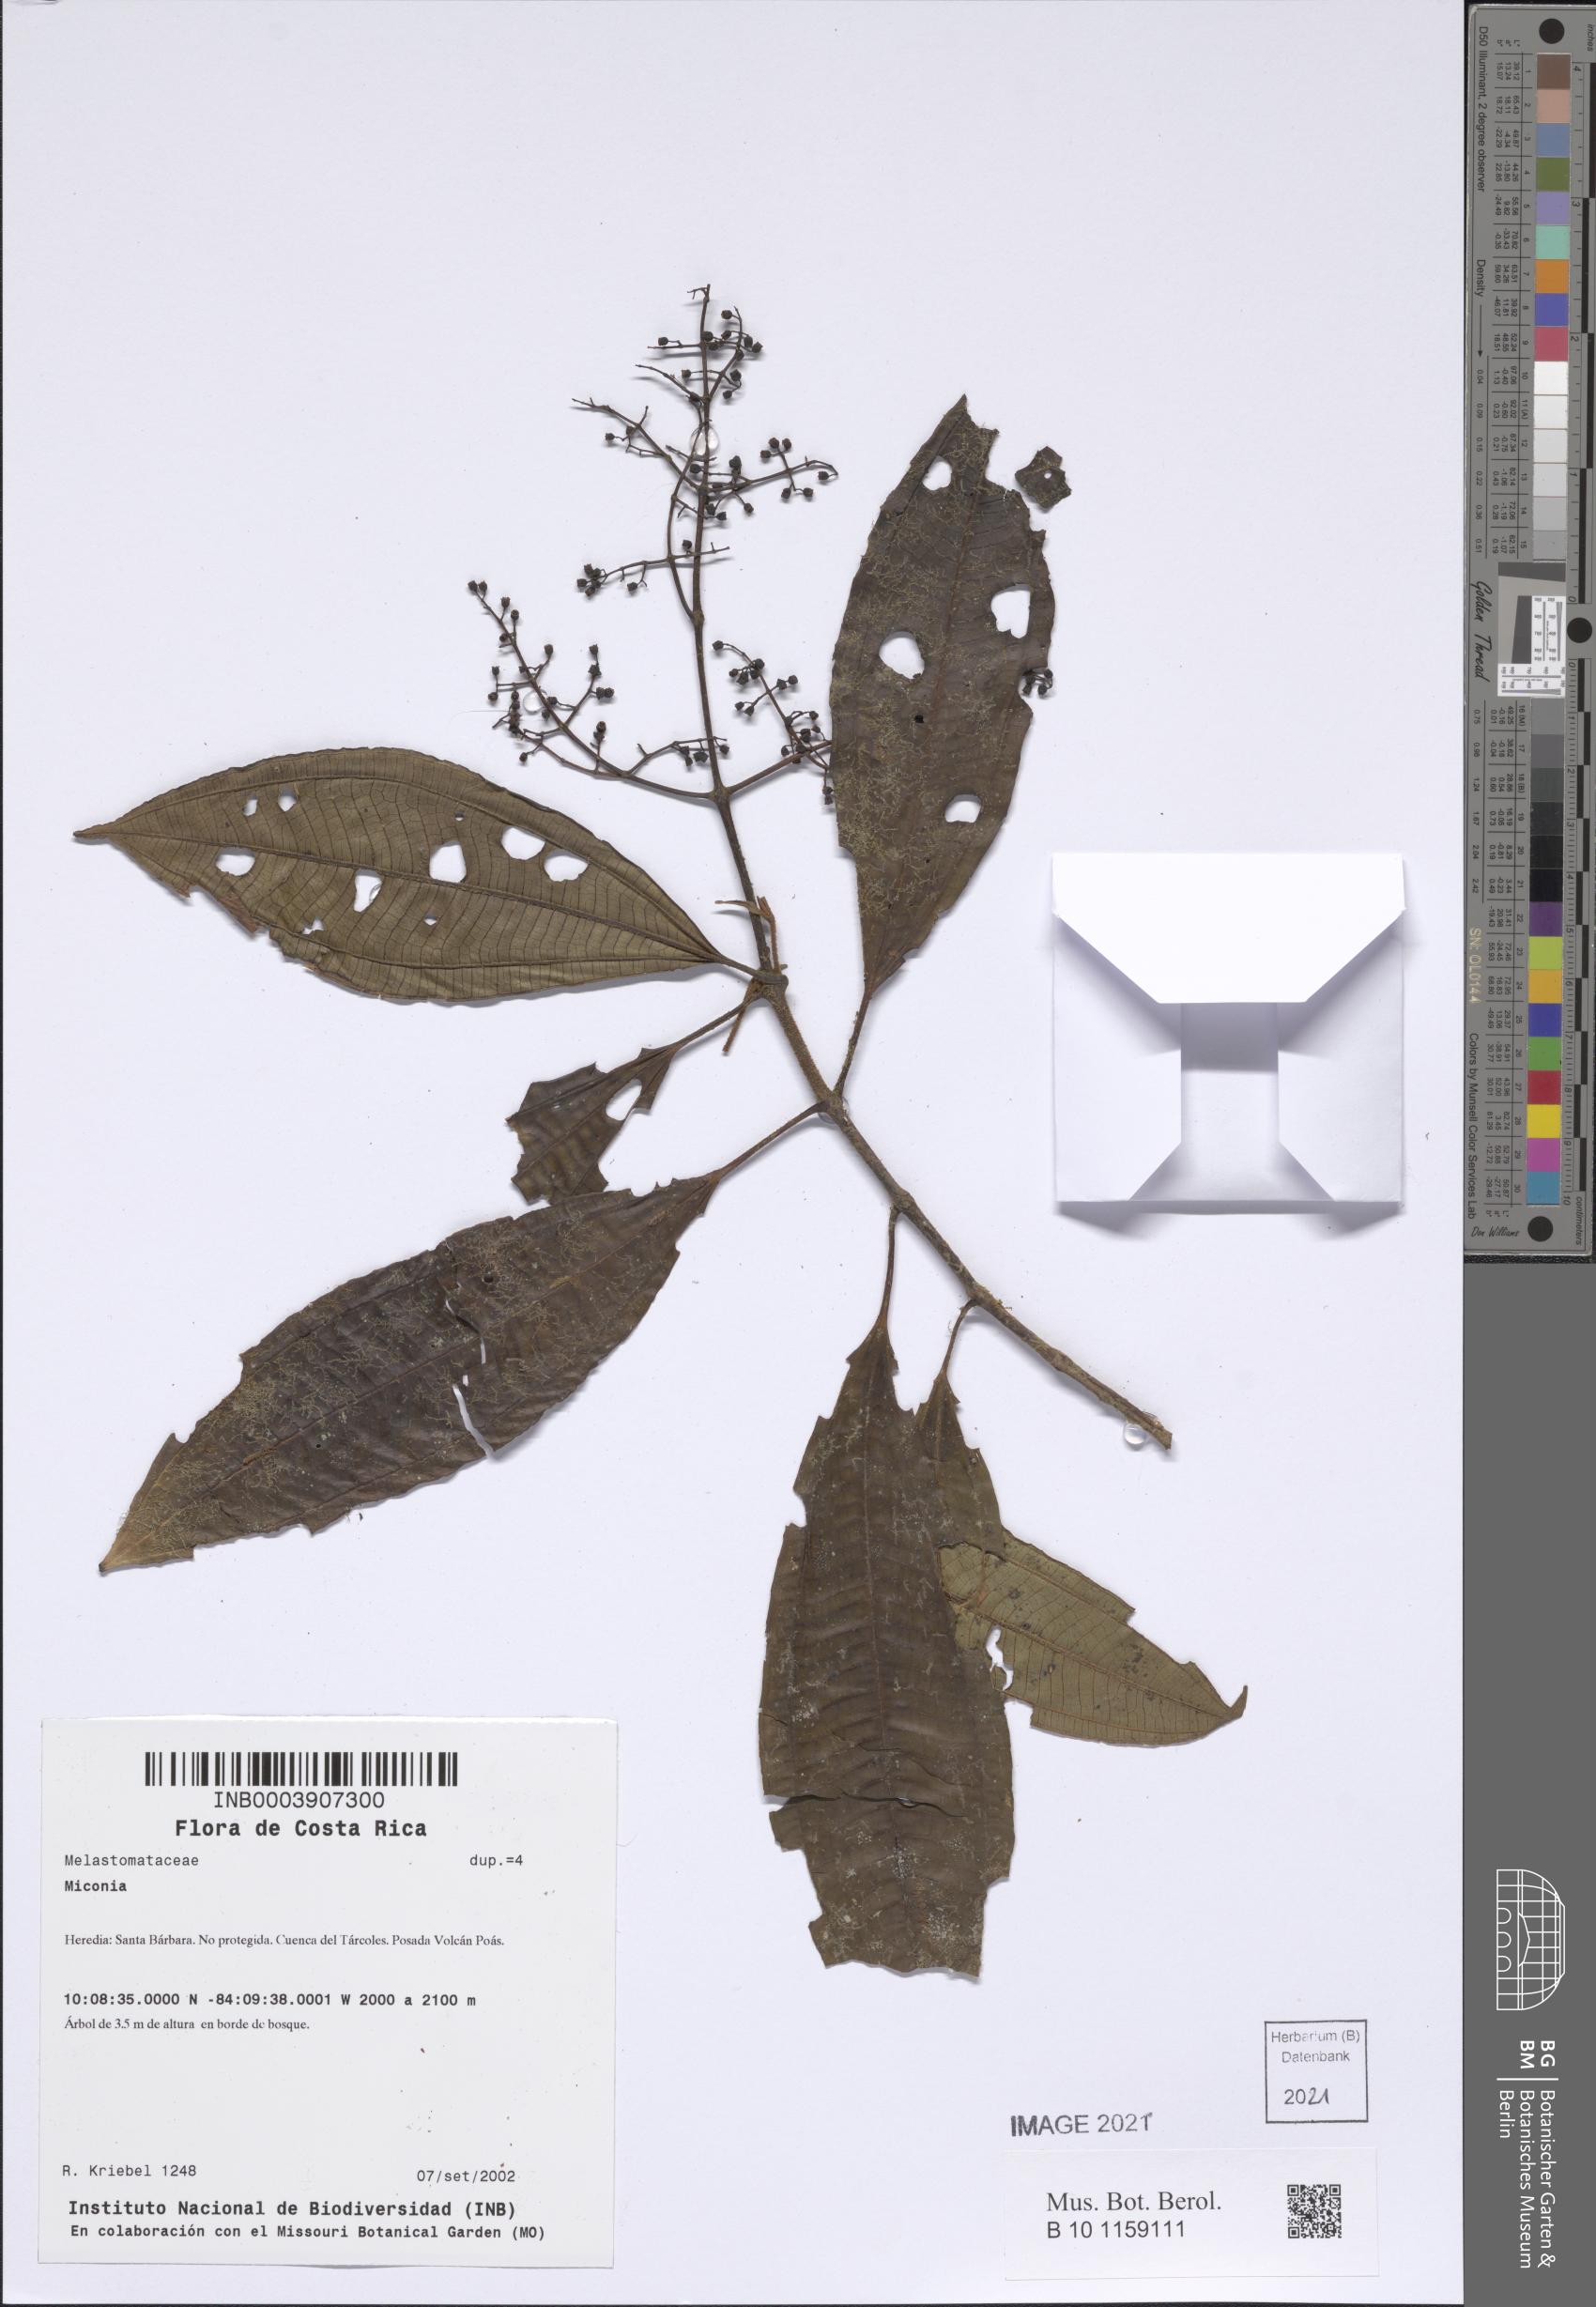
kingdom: Plantae
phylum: Tracheophyta
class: Magnoliopsida
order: Myrtales
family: Melastomataceae
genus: Miconia
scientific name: Miconia
